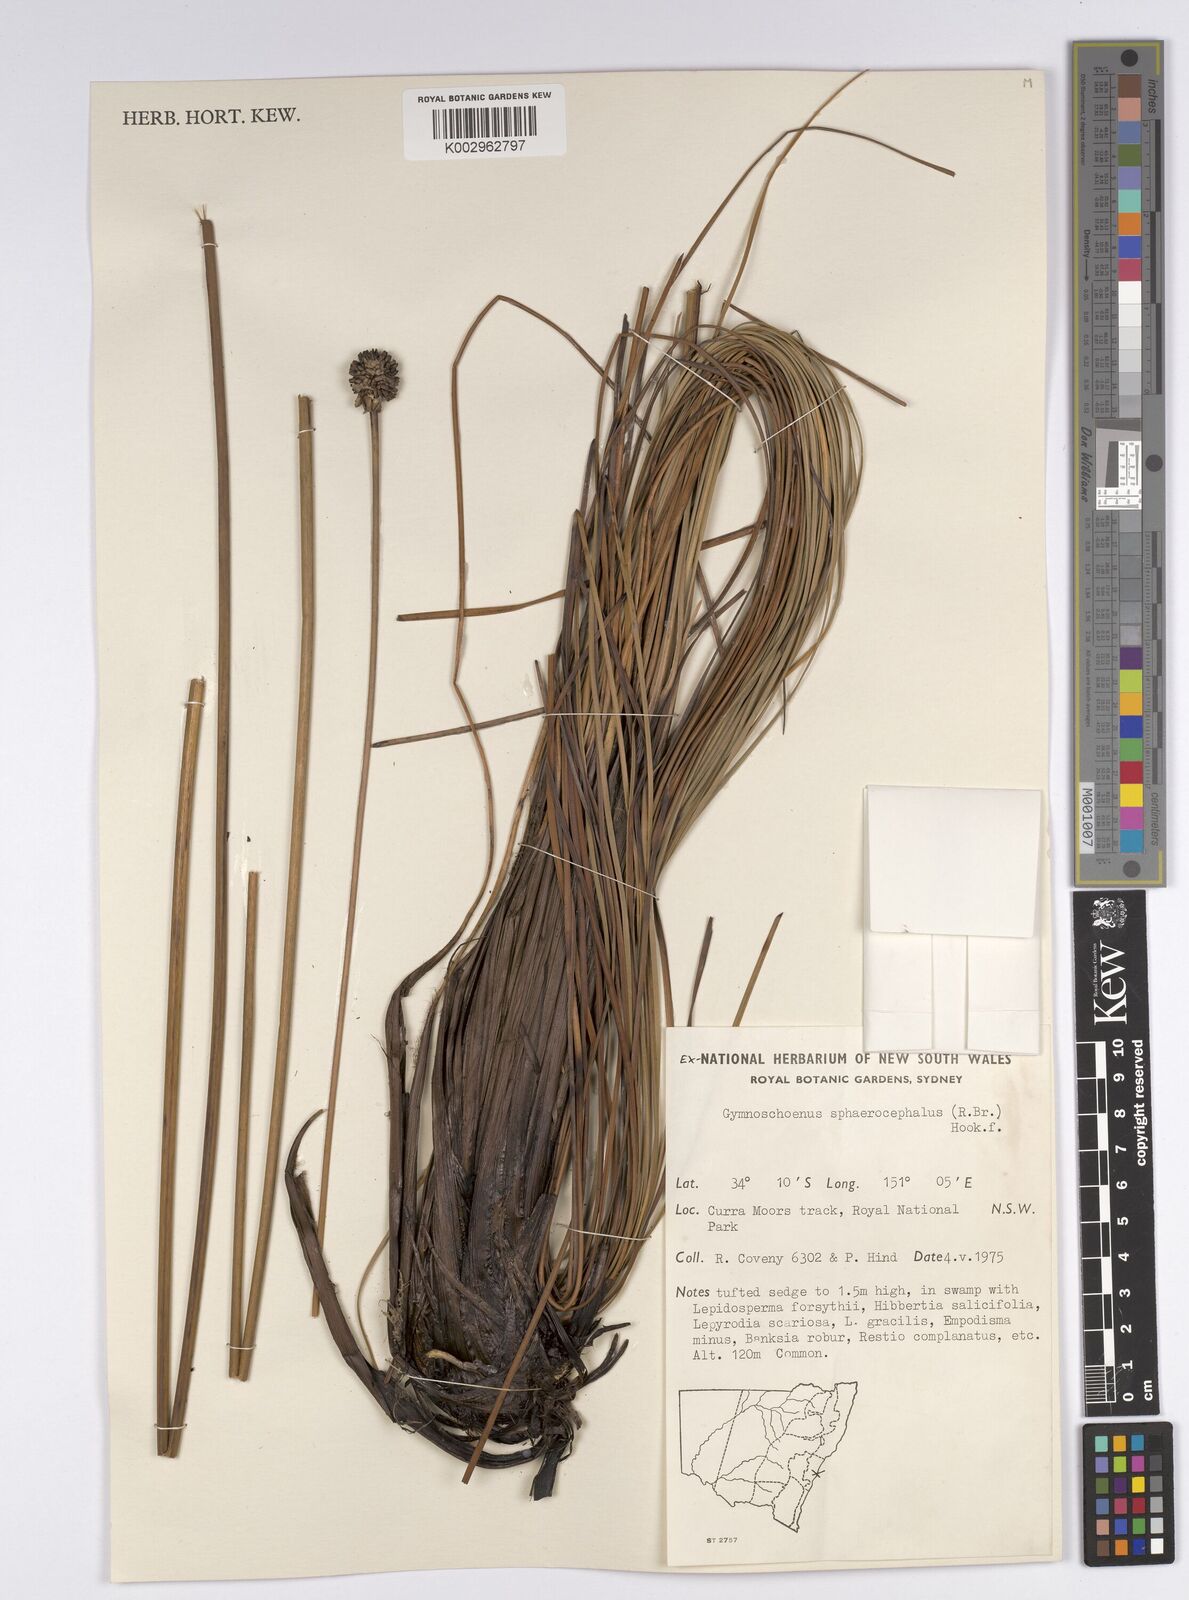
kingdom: Plantae
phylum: Tracheophyta
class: Liliopsida
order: Poales
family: Cyperaceae
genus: Gymnoschoenus
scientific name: Gymnoschoenus sphaerocephalus
